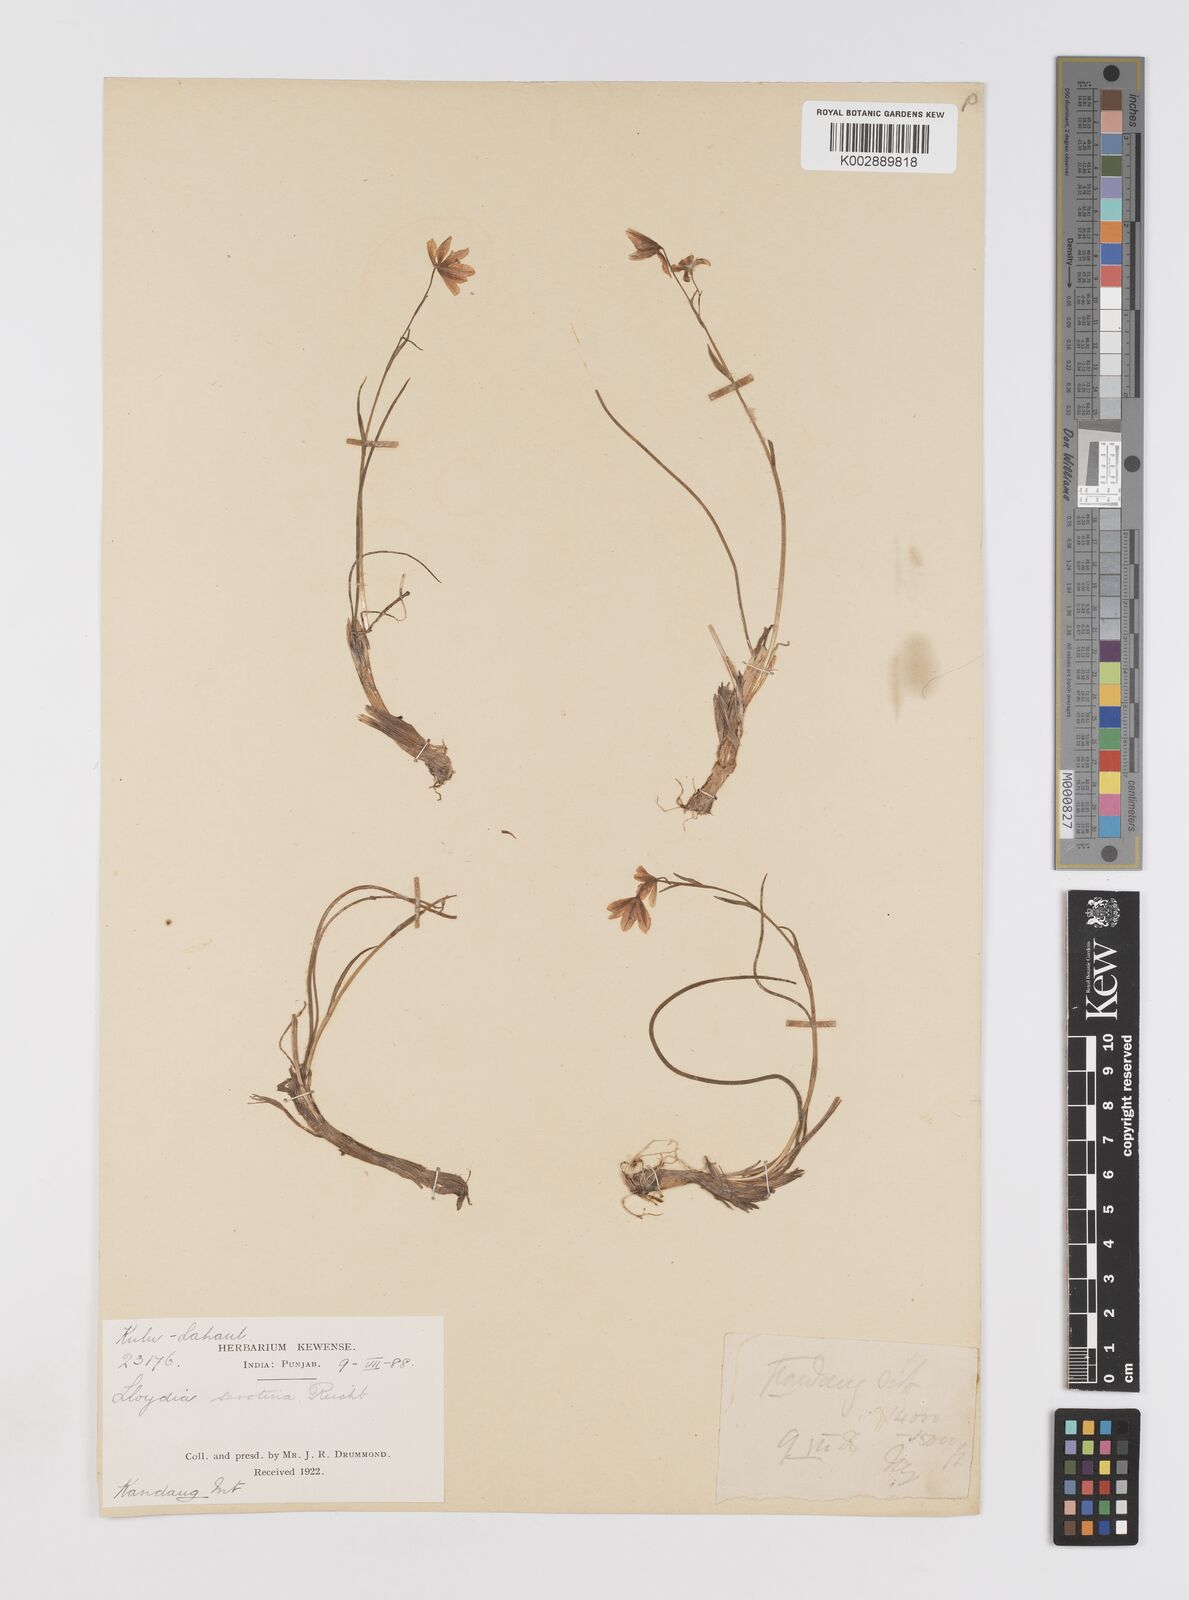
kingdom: Plantae
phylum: Tracheophyta
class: Liliopsida
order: Liliales
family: Liliaceae
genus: Gagea
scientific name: Gagea serotina
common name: Snowdon lily
